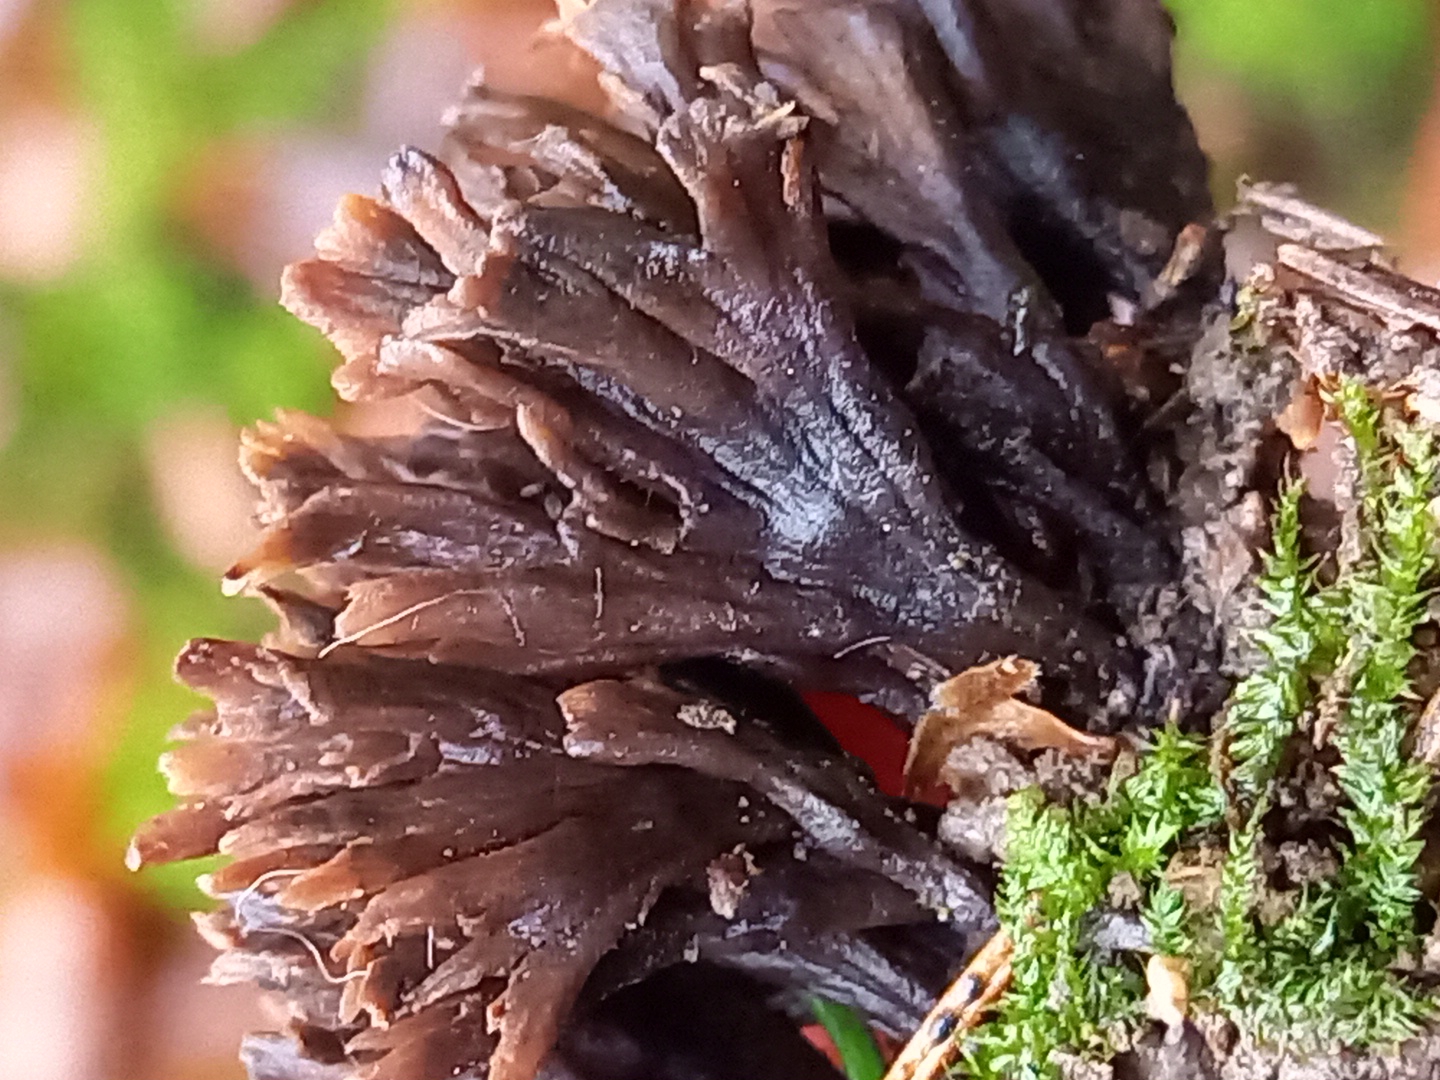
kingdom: Fungi
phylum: Basidiomycota
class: Agaricomycetes
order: Thelephorales
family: Thelephoraceae
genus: Thelephora
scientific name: Thelephora palmata
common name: grenet frynsesvamp
